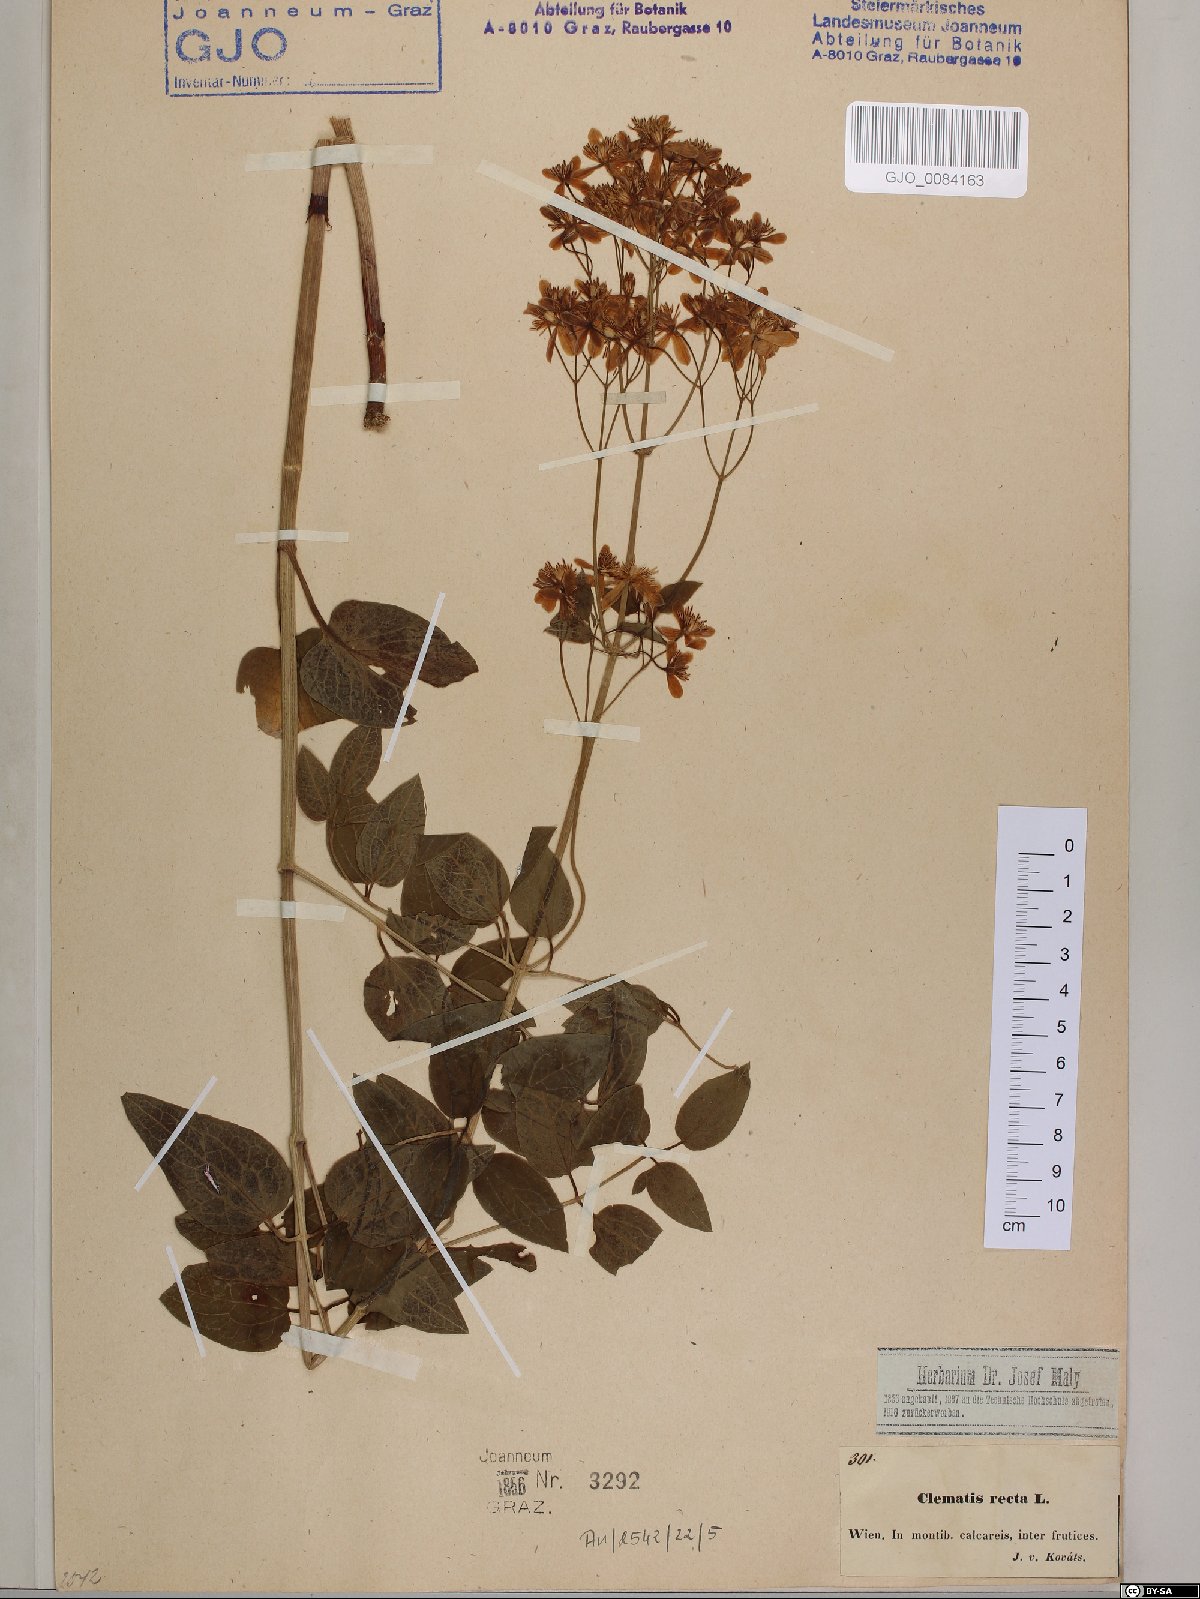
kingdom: Plantae
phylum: Tracheophyta
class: Magnoliopsida
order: Ranunculales
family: Ranunculaceae
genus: Clematis
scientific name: Clematis recta
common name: Ground clematis
